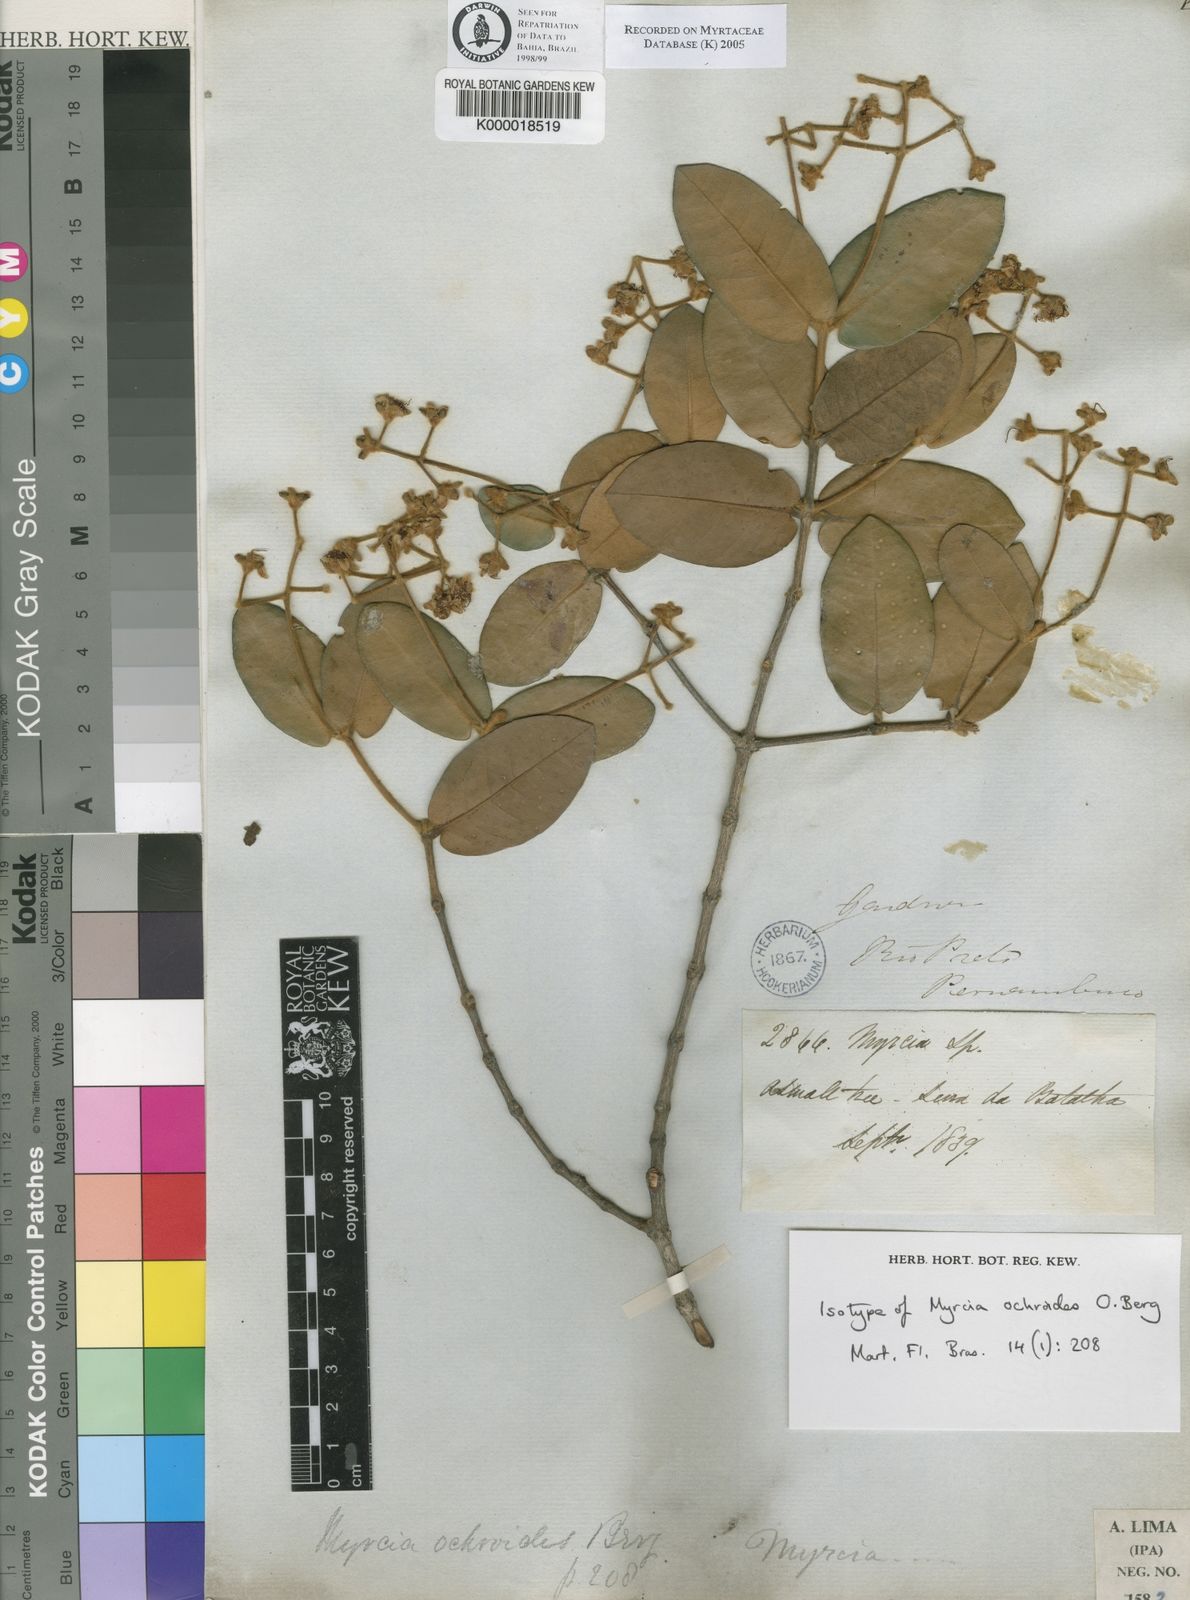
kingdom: Plantae
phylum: Tracheophyta
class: Magnoliopsida
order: Myrtales
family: Myrtaceae
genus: Myrcia
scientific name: Myrcia ochroides
